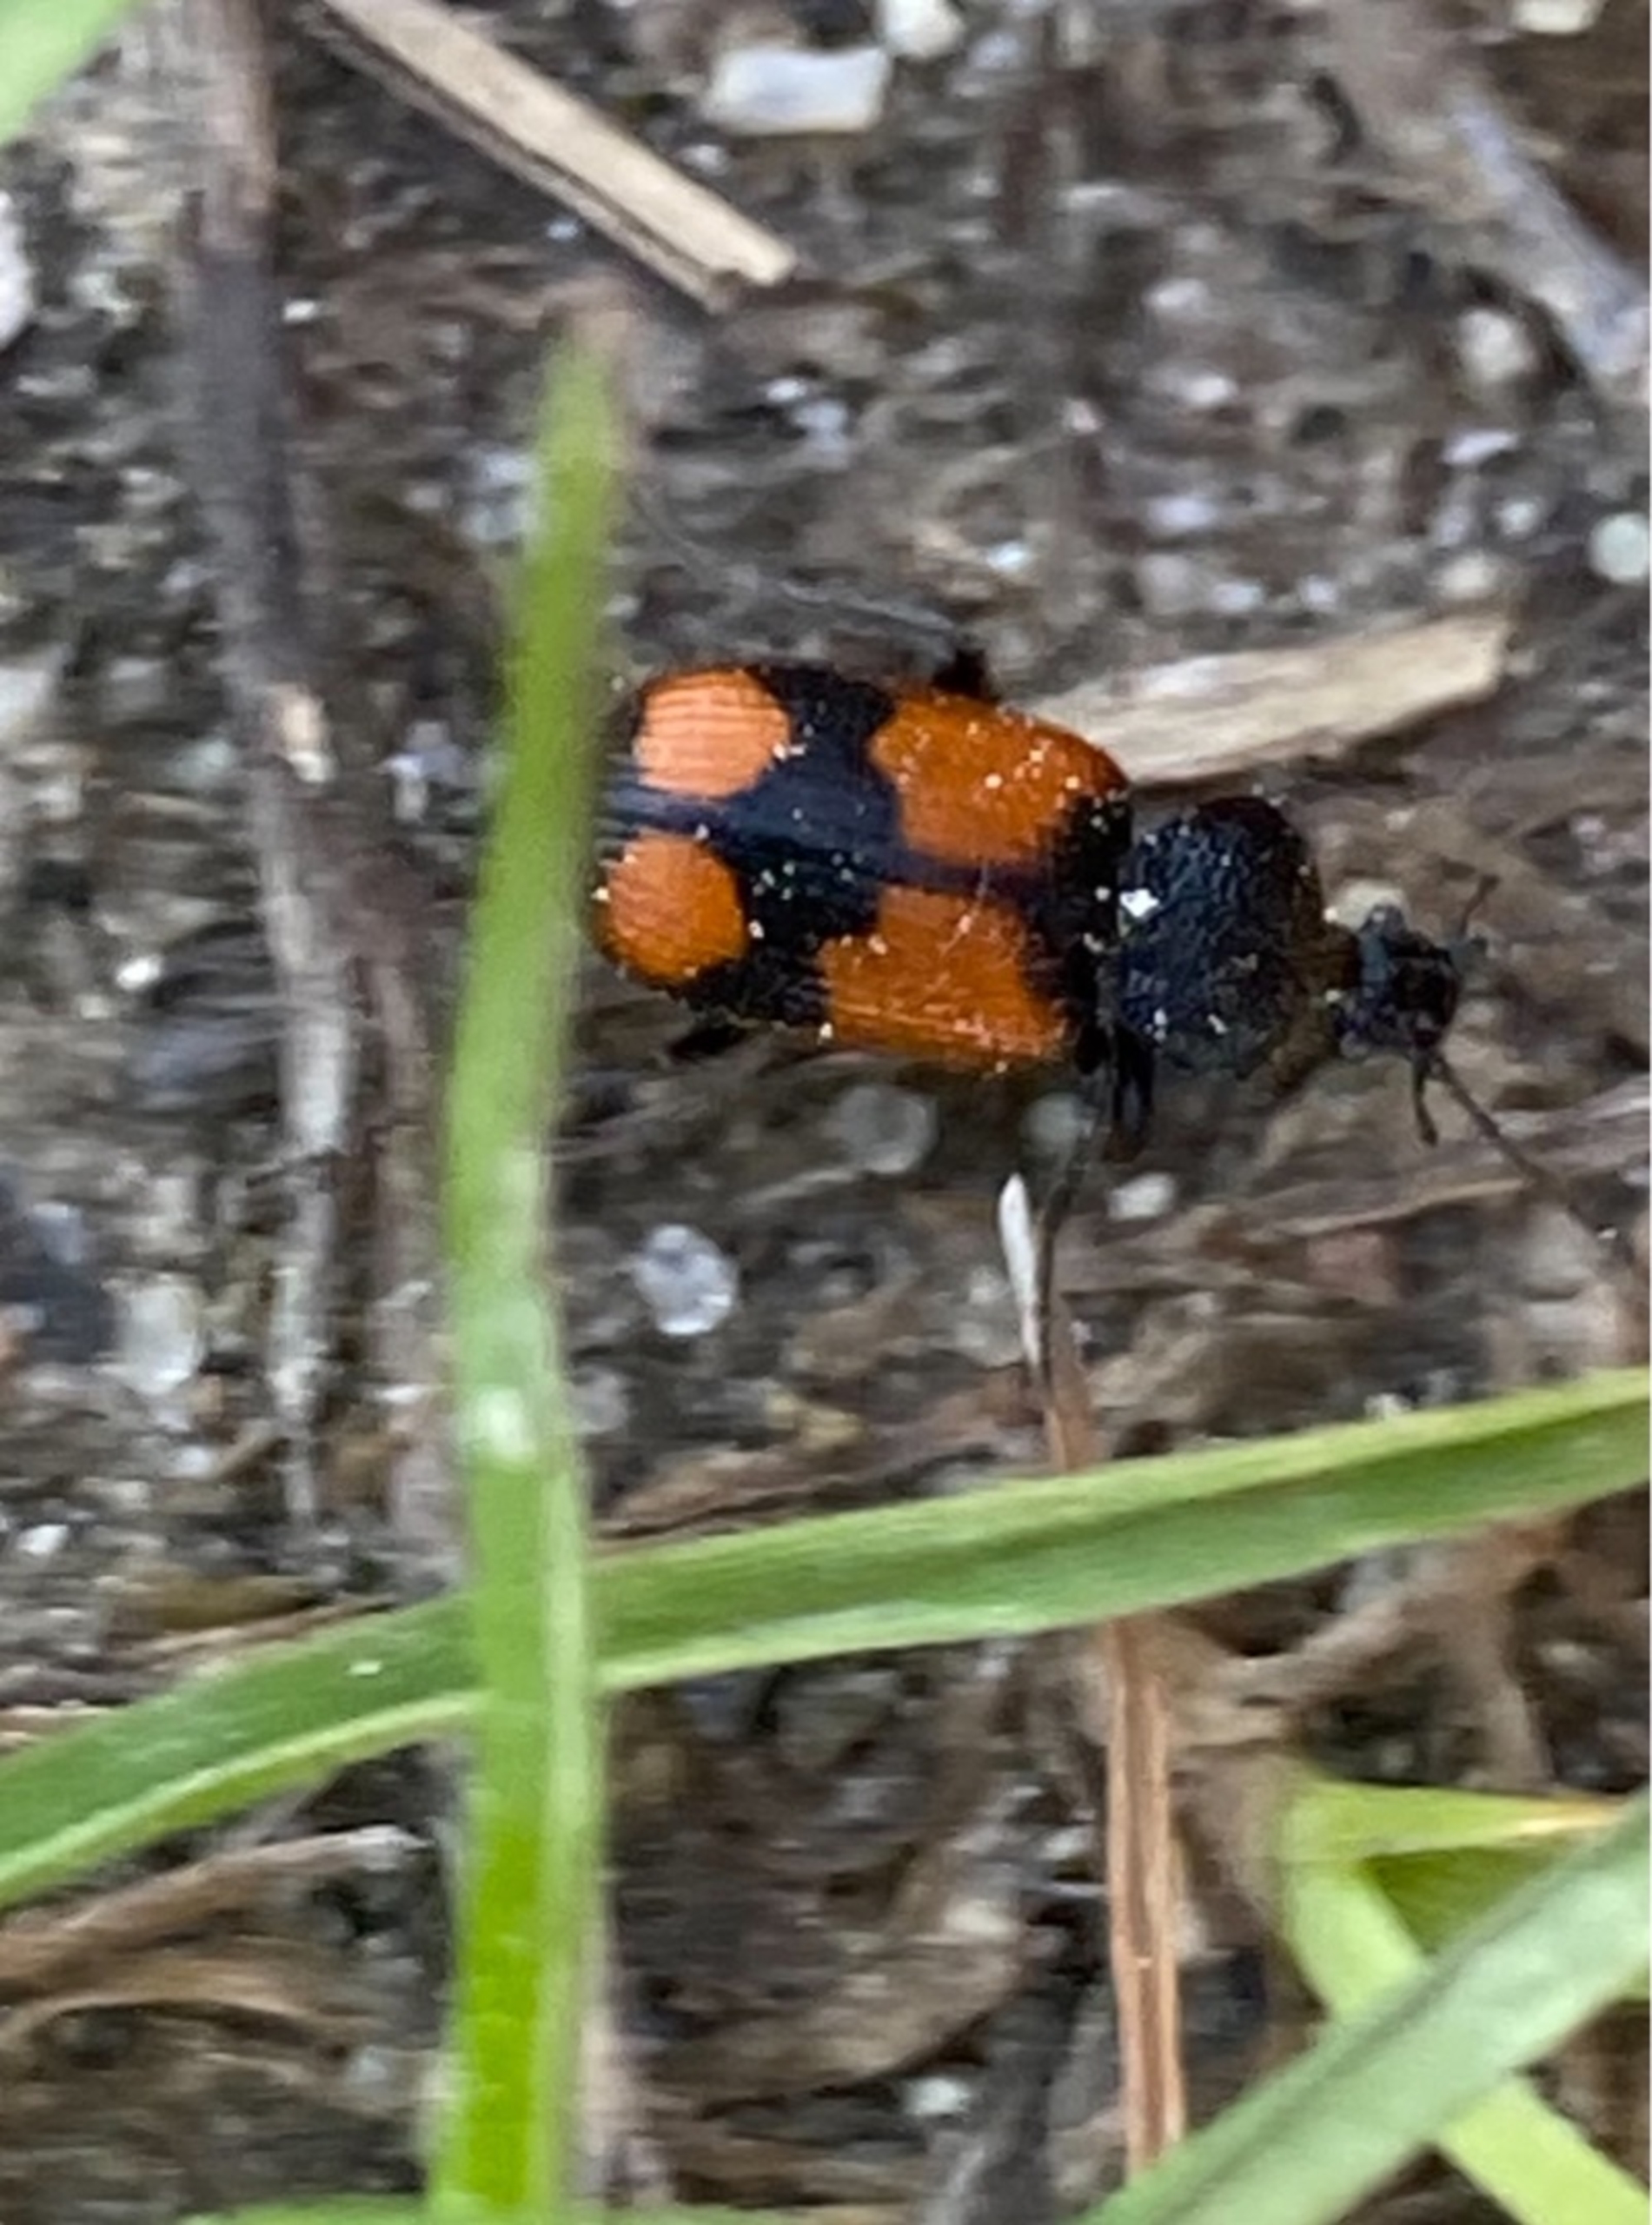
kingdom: Animalia
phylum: Arthropoda
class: Insecta
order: Coleoptera
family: Carabidae
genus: Panagaeus
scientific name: Panagaeus cruxmajor
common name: Stor korsløber
